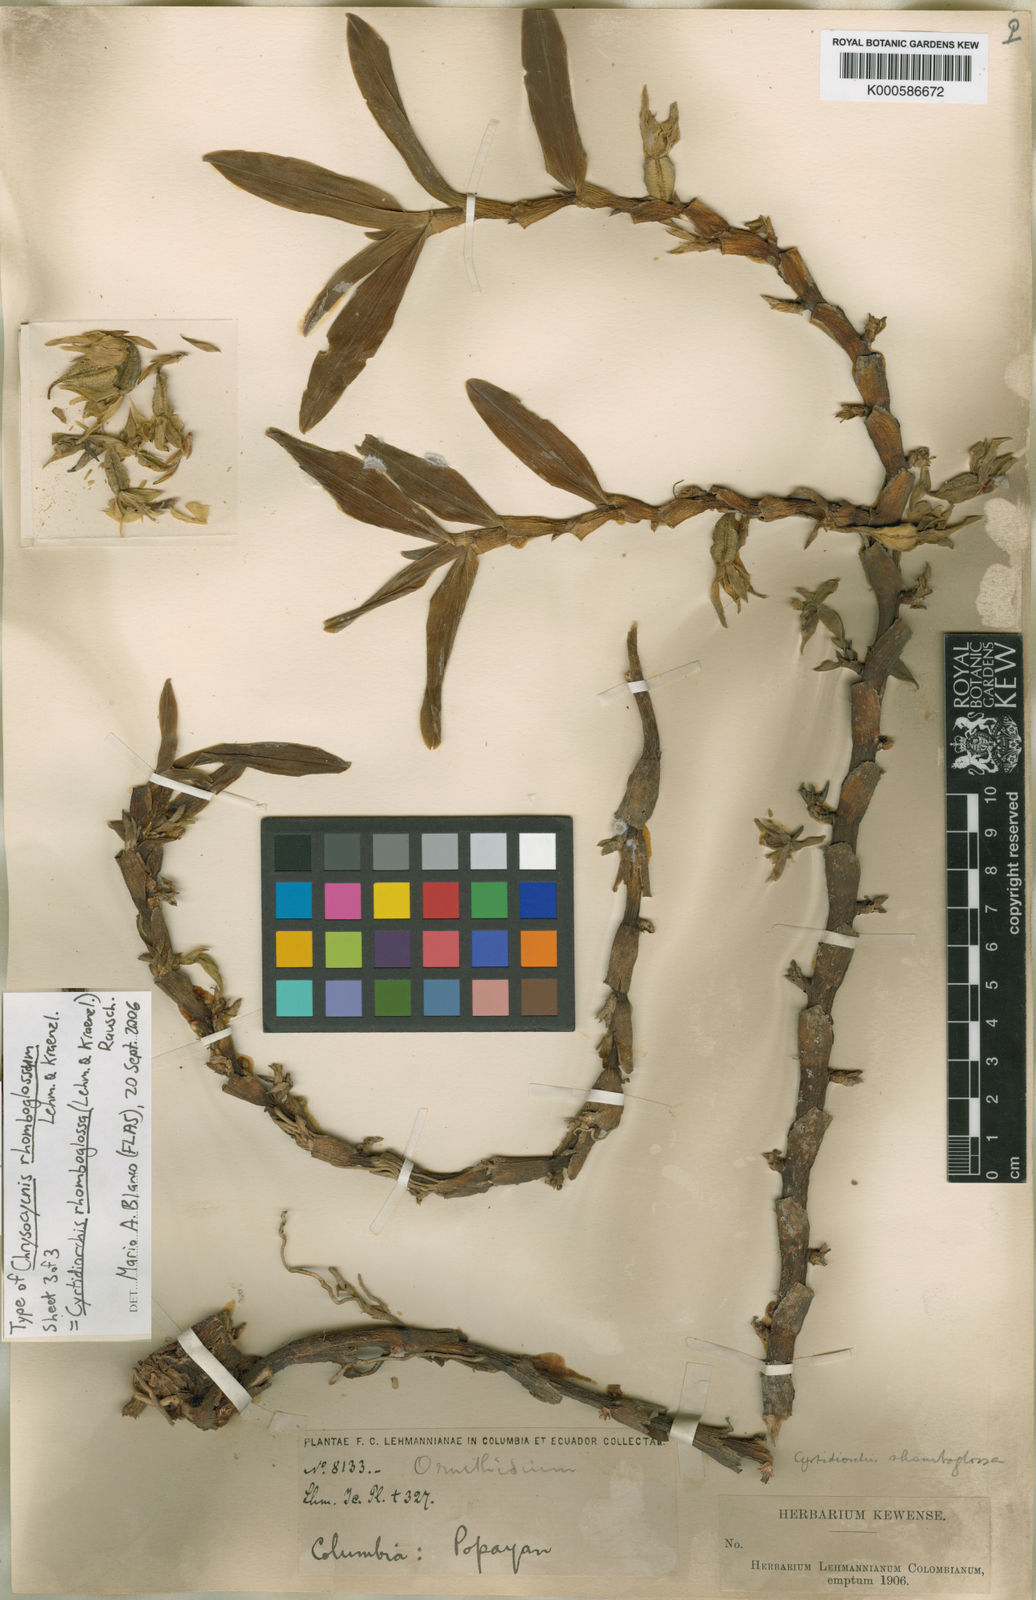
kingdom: Plantae
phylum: Tracheophyta
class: Liliopsida
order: Asparagales
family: Orchidaceae
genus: Maxillaria
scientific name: Maxillaria rhomboglossa
